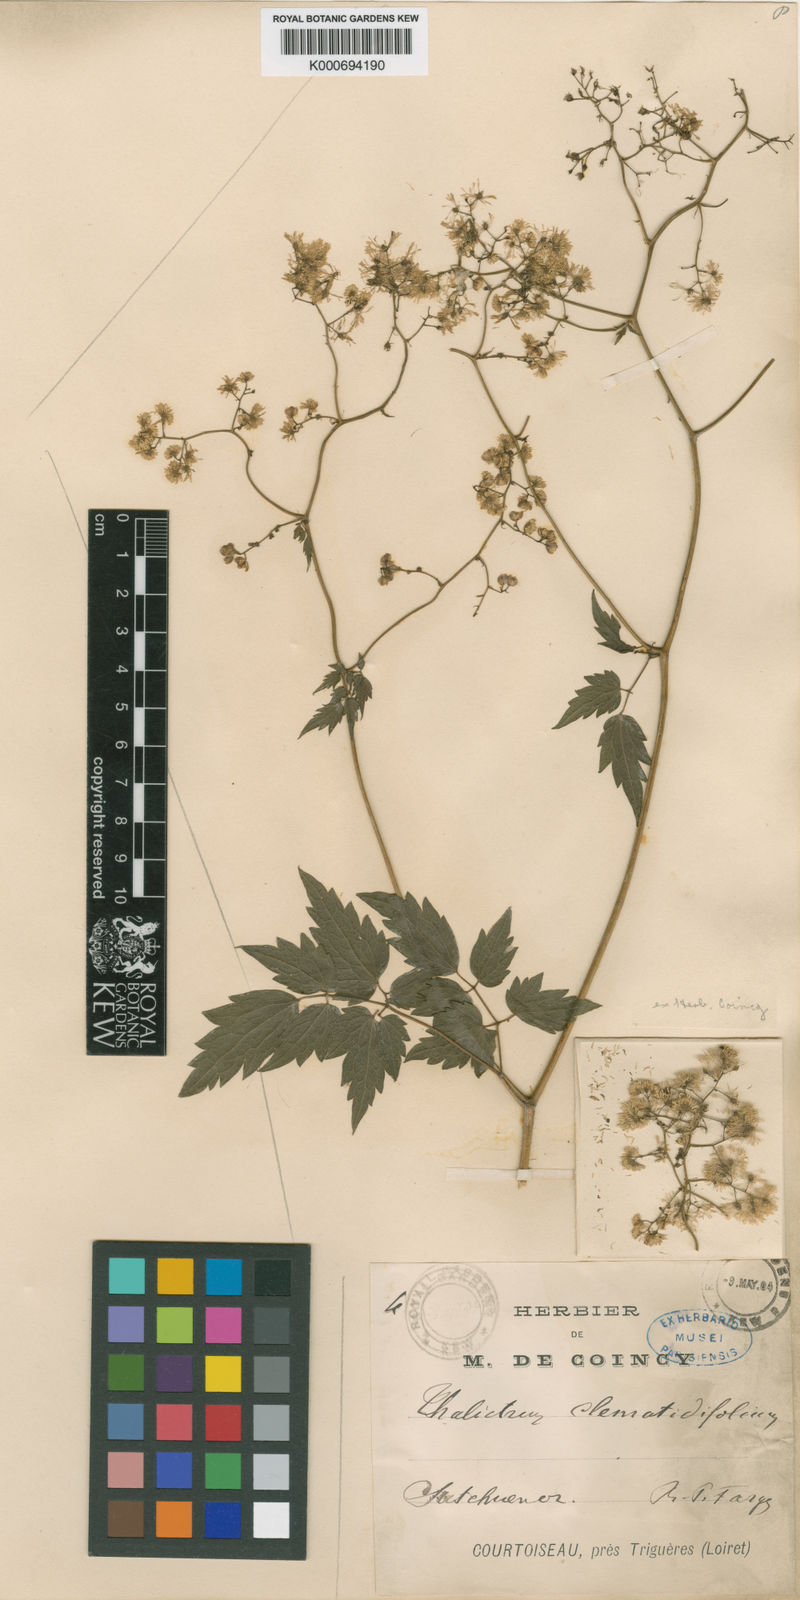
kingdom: Plantae
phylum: Tracheophyta
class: Magnoliopsida
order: Ranunculales
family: Ranunculaceae
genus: Thalictrum
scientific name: Thalictrum robustum
